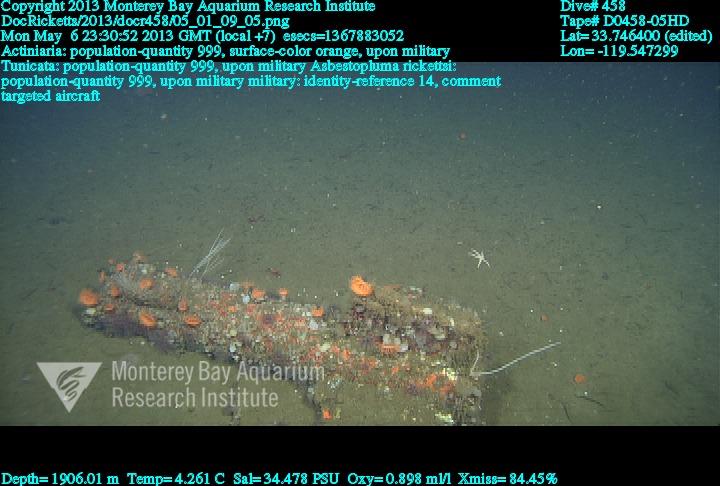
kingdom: Animalia
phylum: Porifera
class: Demospongiae
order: Poecilosclerida
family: Cladorhizidae
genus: Asbestopluma
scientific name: Asbestopluma rickettsi
